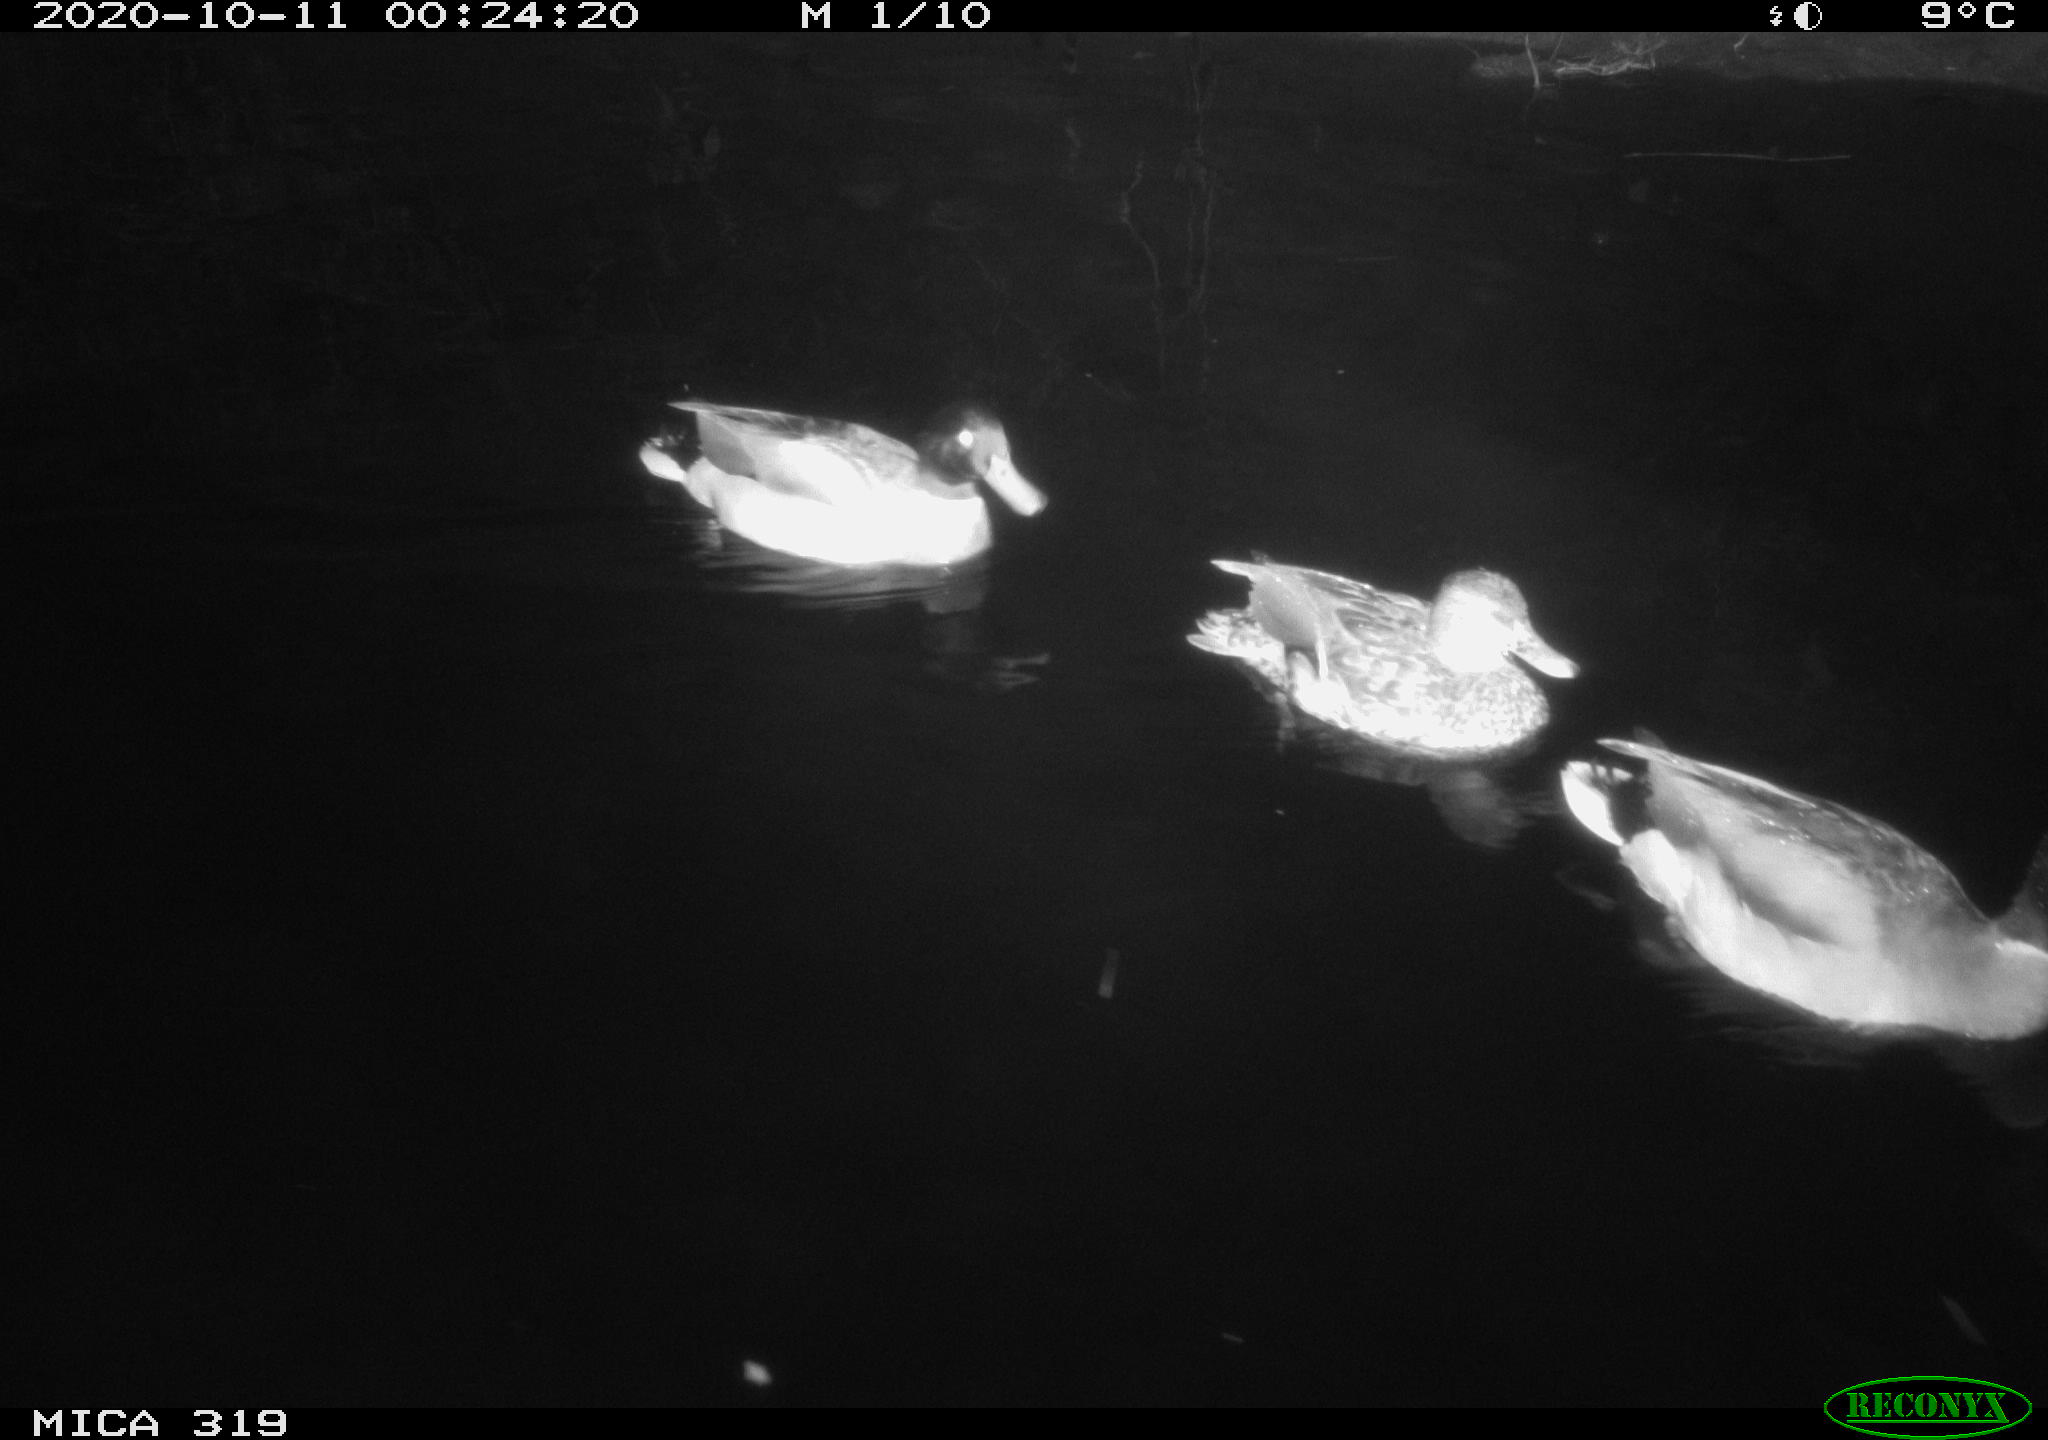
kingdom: Animalia
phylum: Chordata
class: Aves
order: Anseriformes
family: Anatidae
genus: Anas
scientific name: Anas platyrhynchos
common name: Mallard
